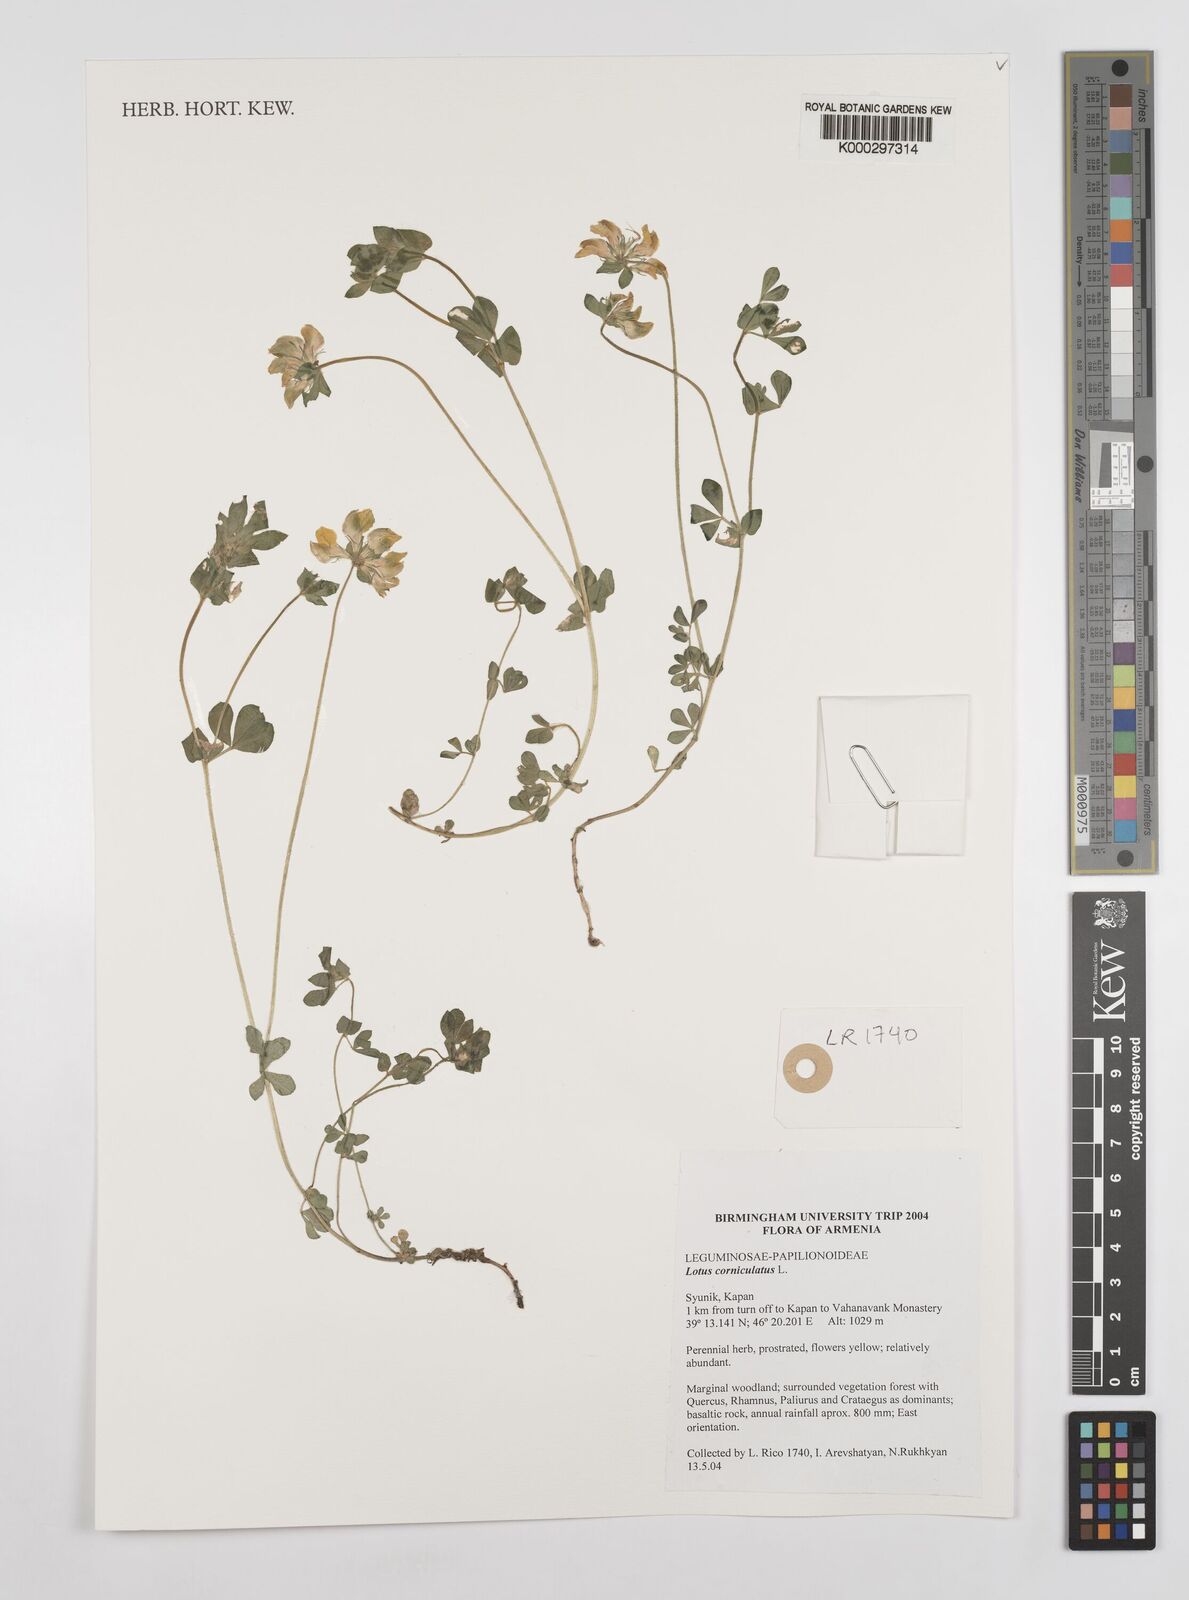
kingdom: Plantae
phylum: Tracheophyta
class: Magnoliopsida
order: Fabales
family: Fabaceae
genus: Lotus
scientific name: Lotus corniculatus
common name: Common bird's-foot-trefoil
